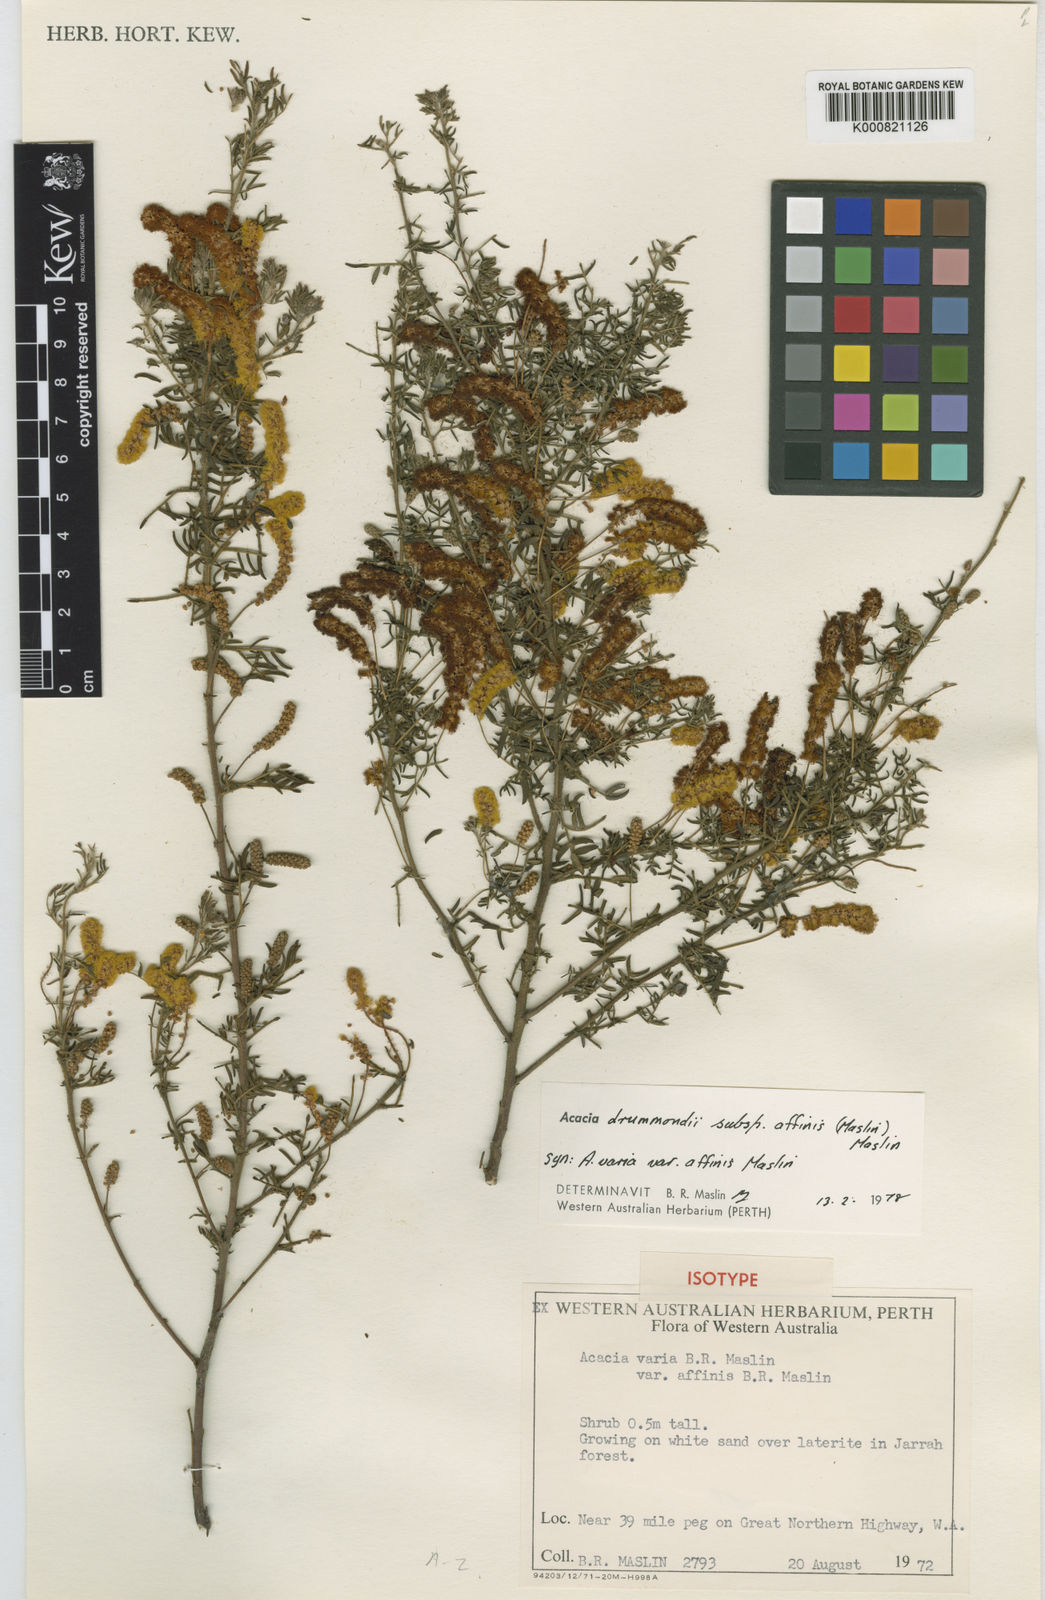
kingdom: Plantae
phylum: Tracheophyta
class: Magnoliopsida
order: Fabales
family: Fabaceae
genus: Acacia
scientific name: Acacia drummondii
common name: Drummond's wattle
